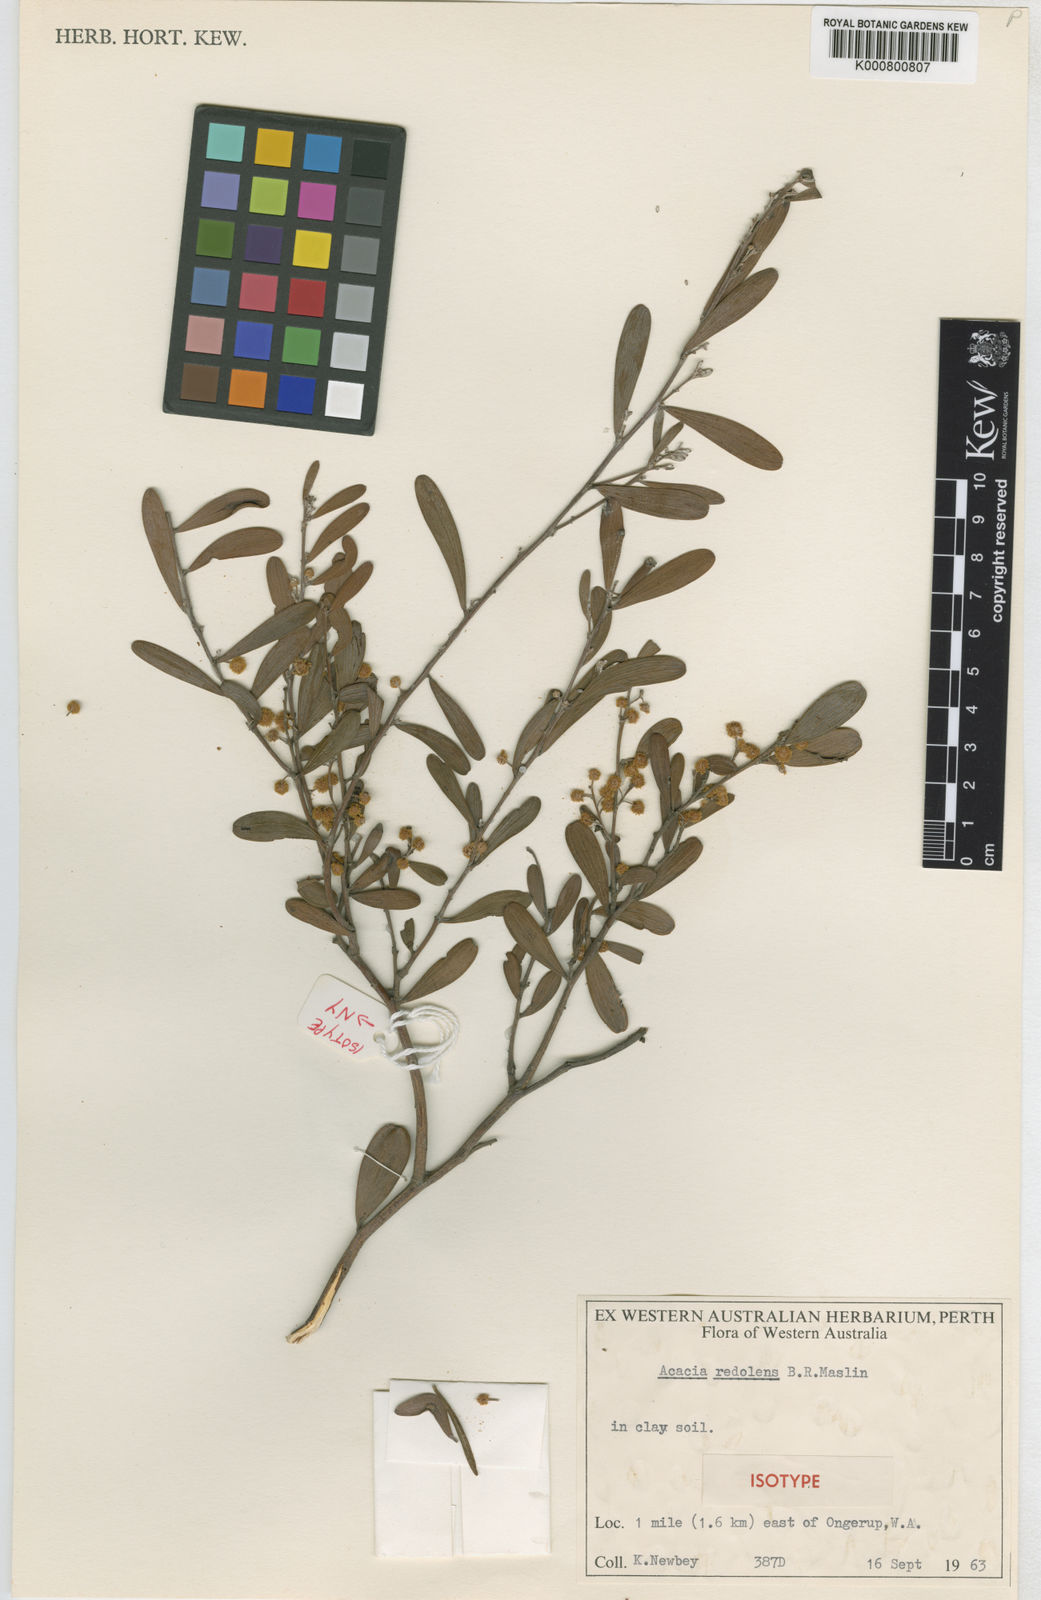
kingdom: Plantae
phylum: Tracheophyta
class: Magnoliopsida
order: Fabales
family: Fabaceae
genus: Acacia
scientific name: Acacia redolens
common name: Bank catclaw
